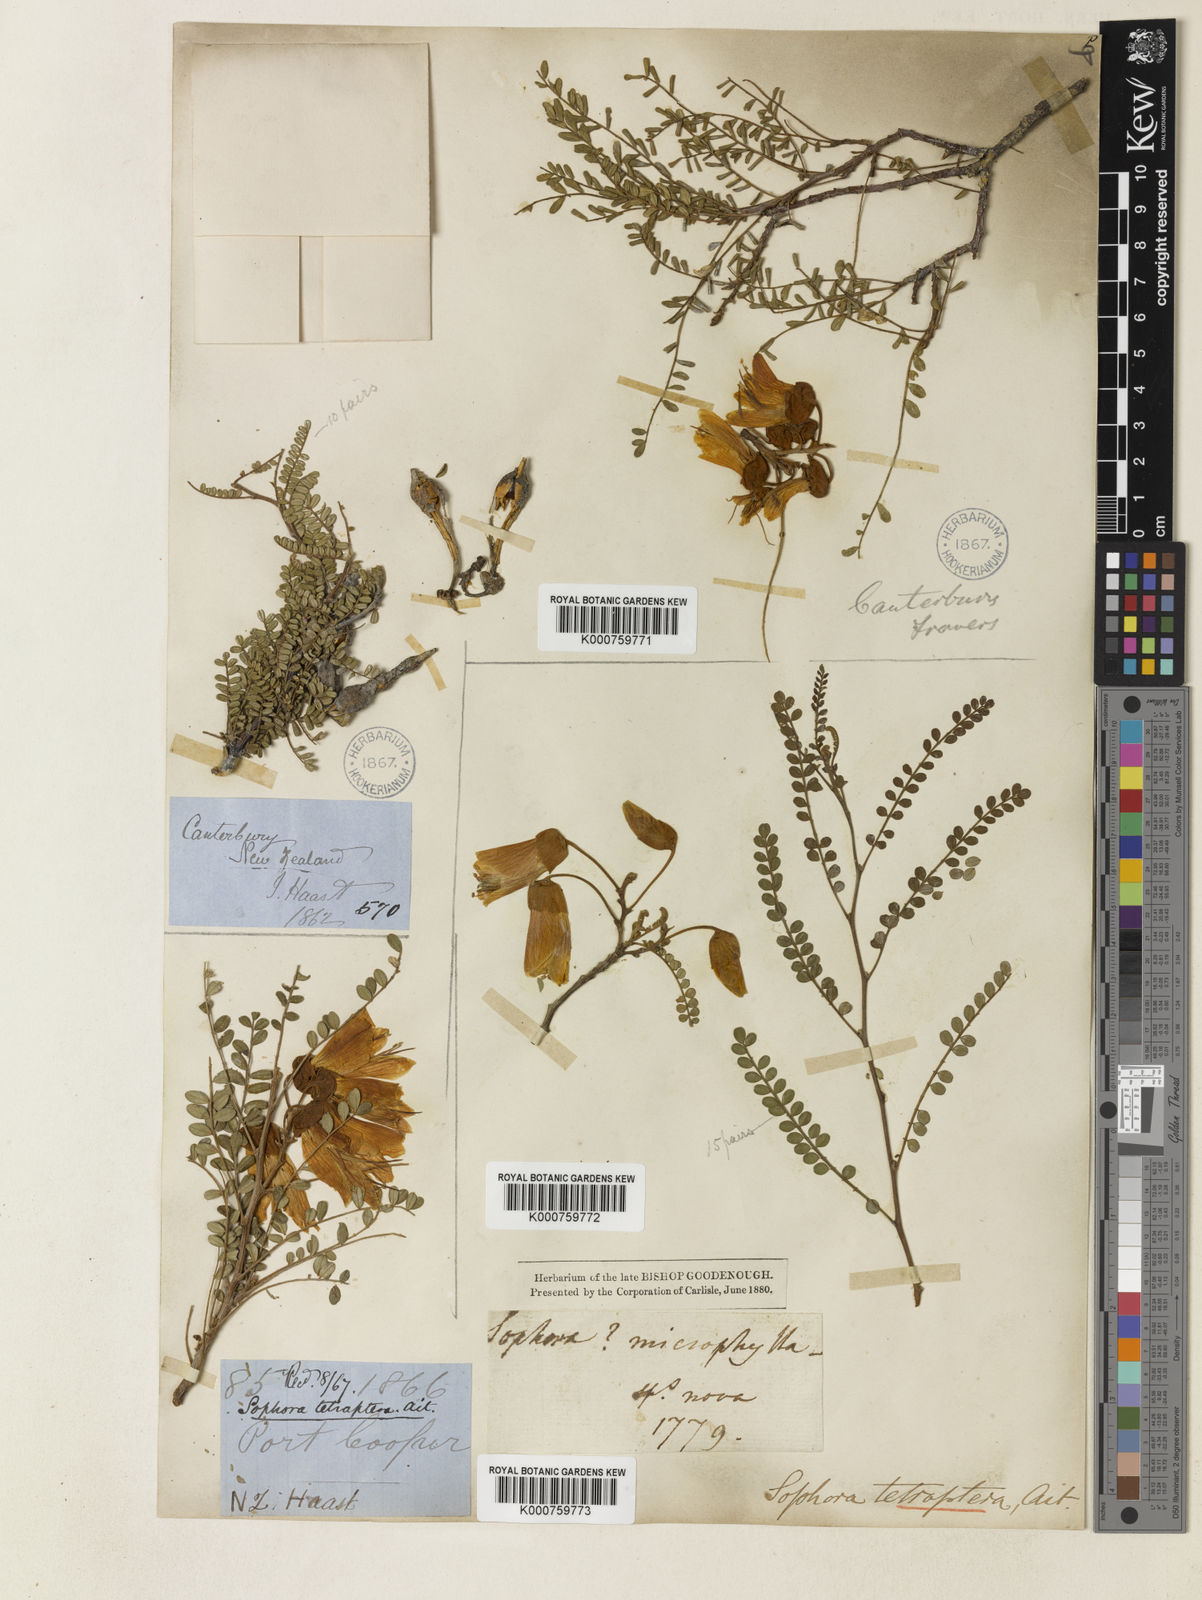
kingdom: Plantae
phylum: Tracheophyta
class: Magnoliopsida
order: Fabales
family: Fabaceae
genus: Sophora
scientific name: Sophora microphylla
